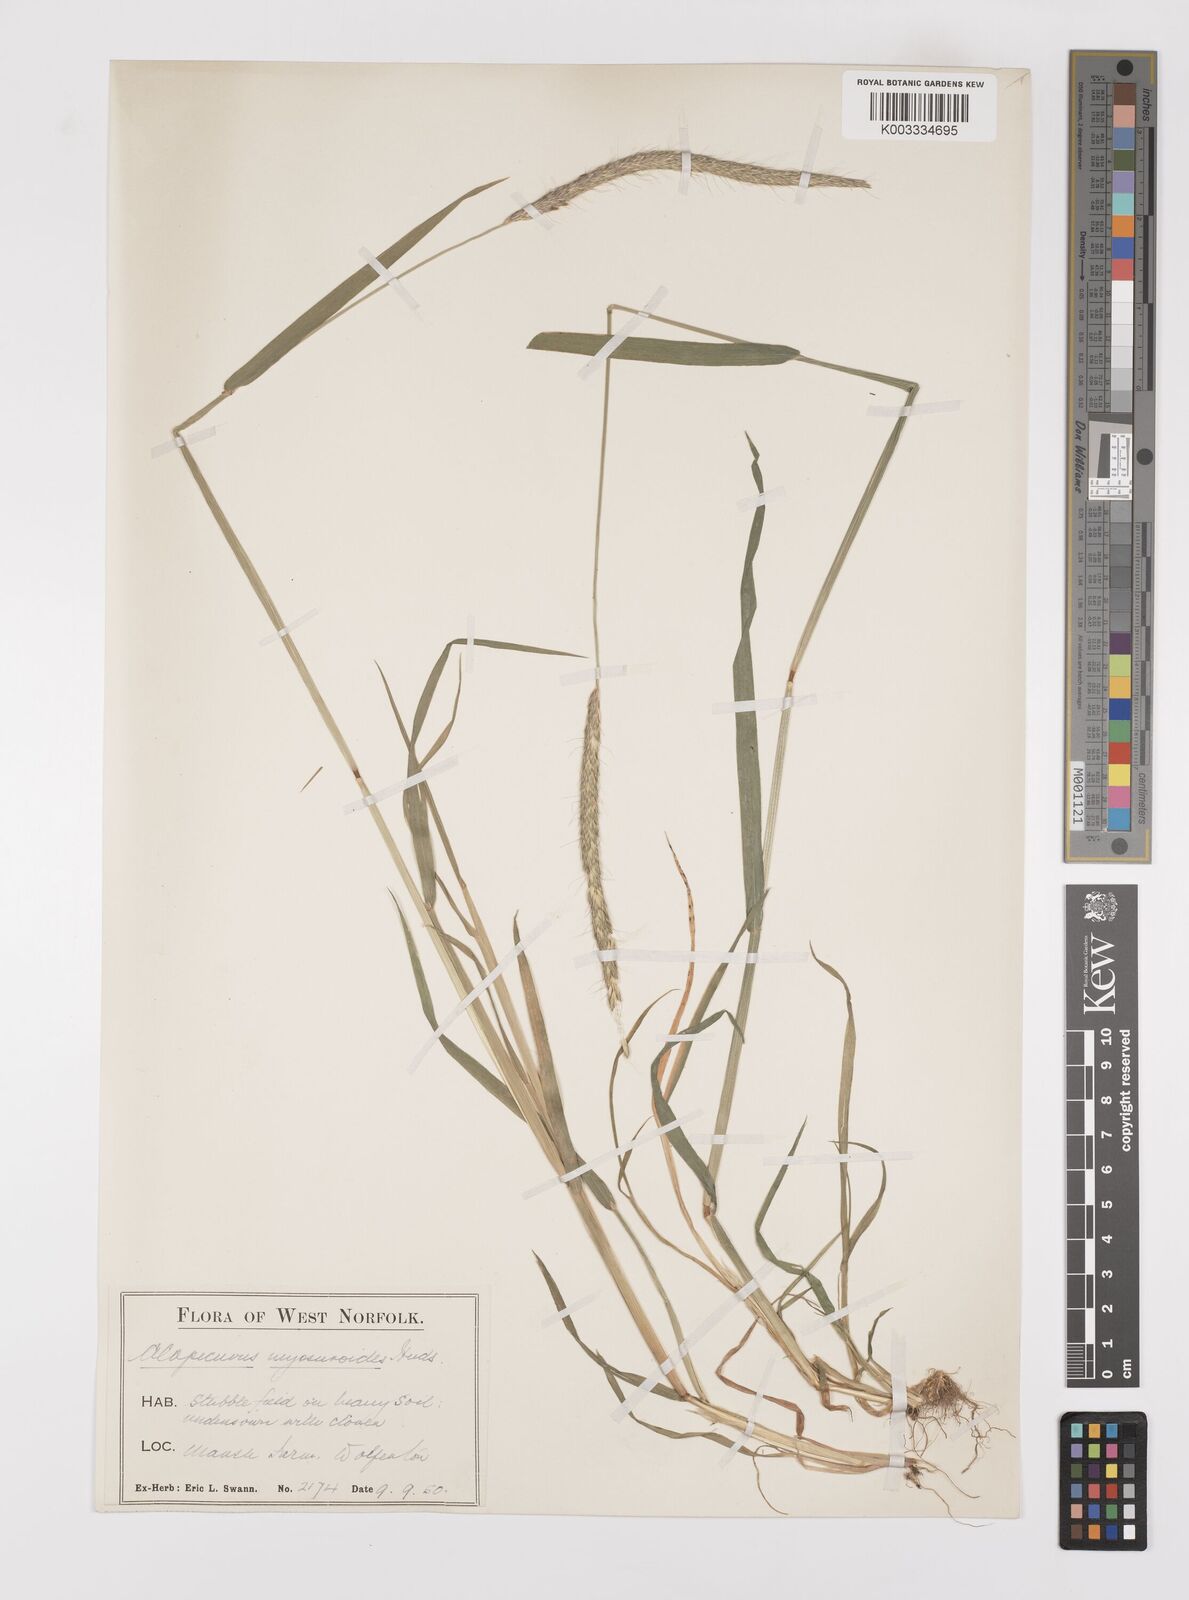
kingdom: Plantae
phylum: Tracheophyta
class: Liliopsida
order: Poales
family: Poaceae
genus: Alopecurus
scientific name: Alopecurus myosuroides
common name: Black-grass
